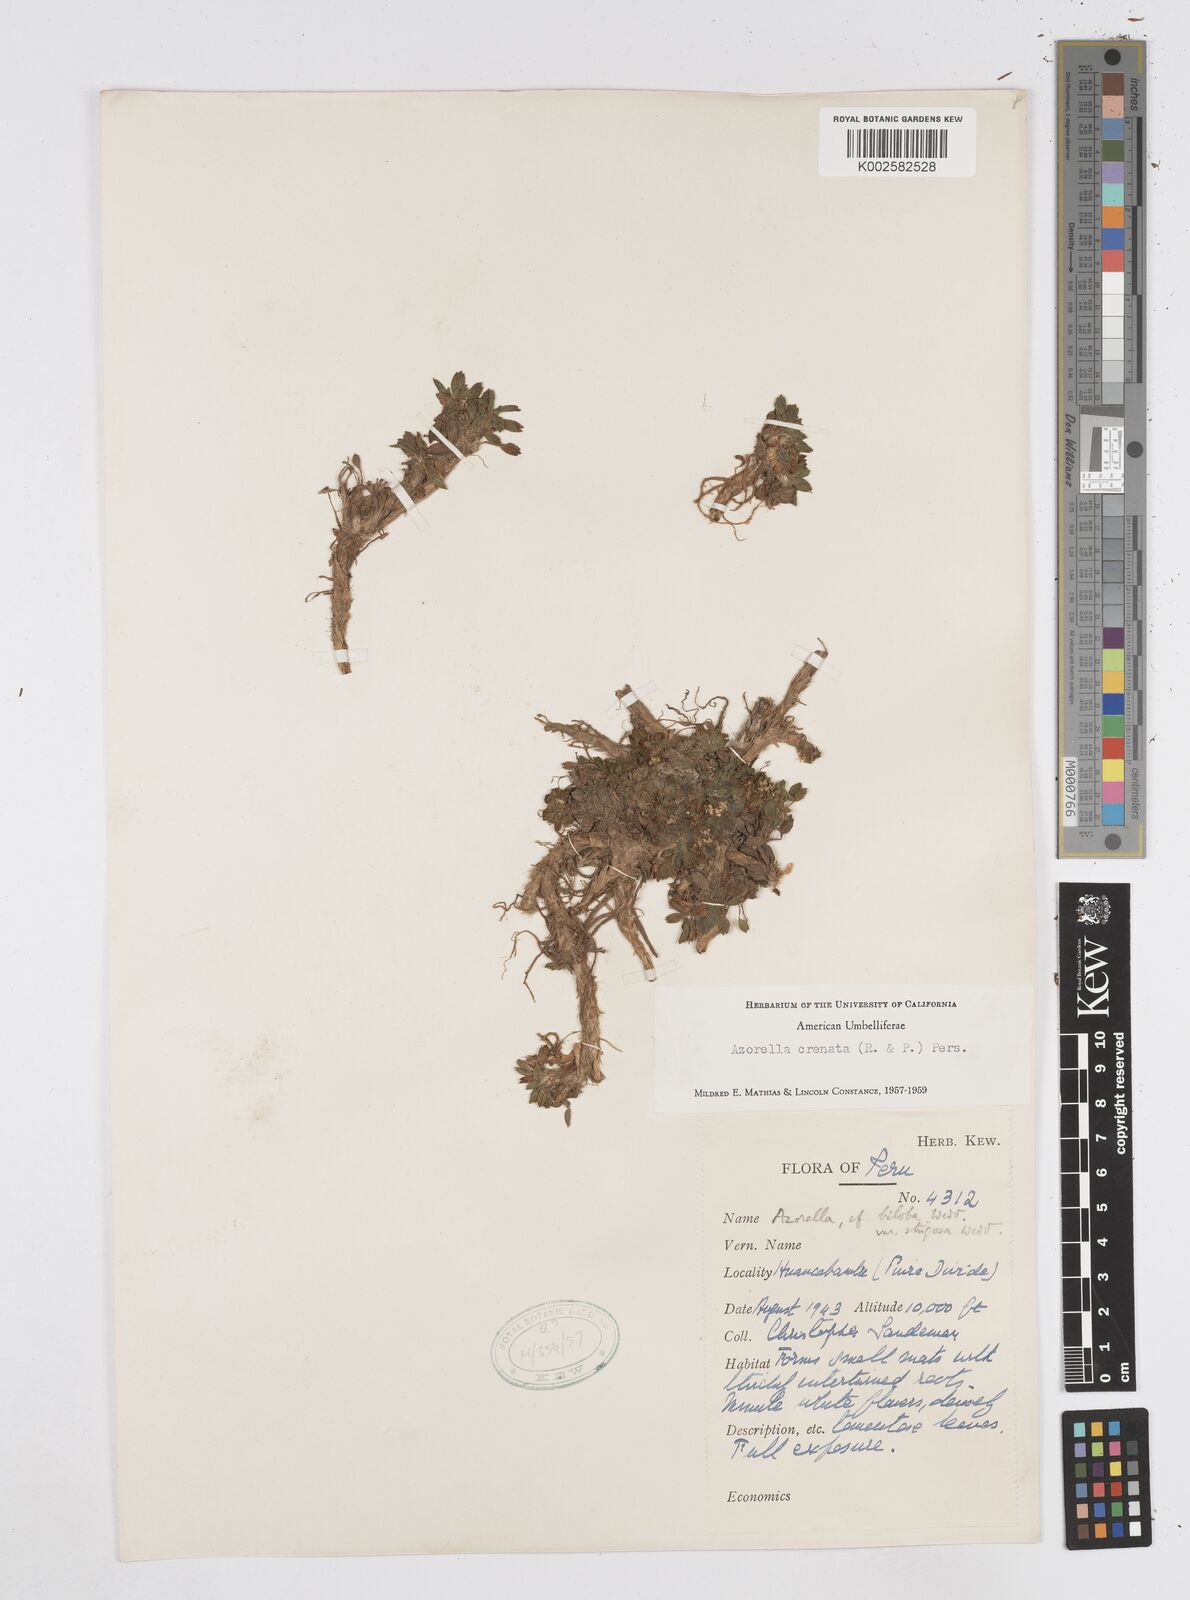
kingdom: Plantae
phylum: Tracheophyta
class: Magnoliopsida
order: Apiales
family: Apiaceae
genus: Azorella
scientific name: Azorella crenata
